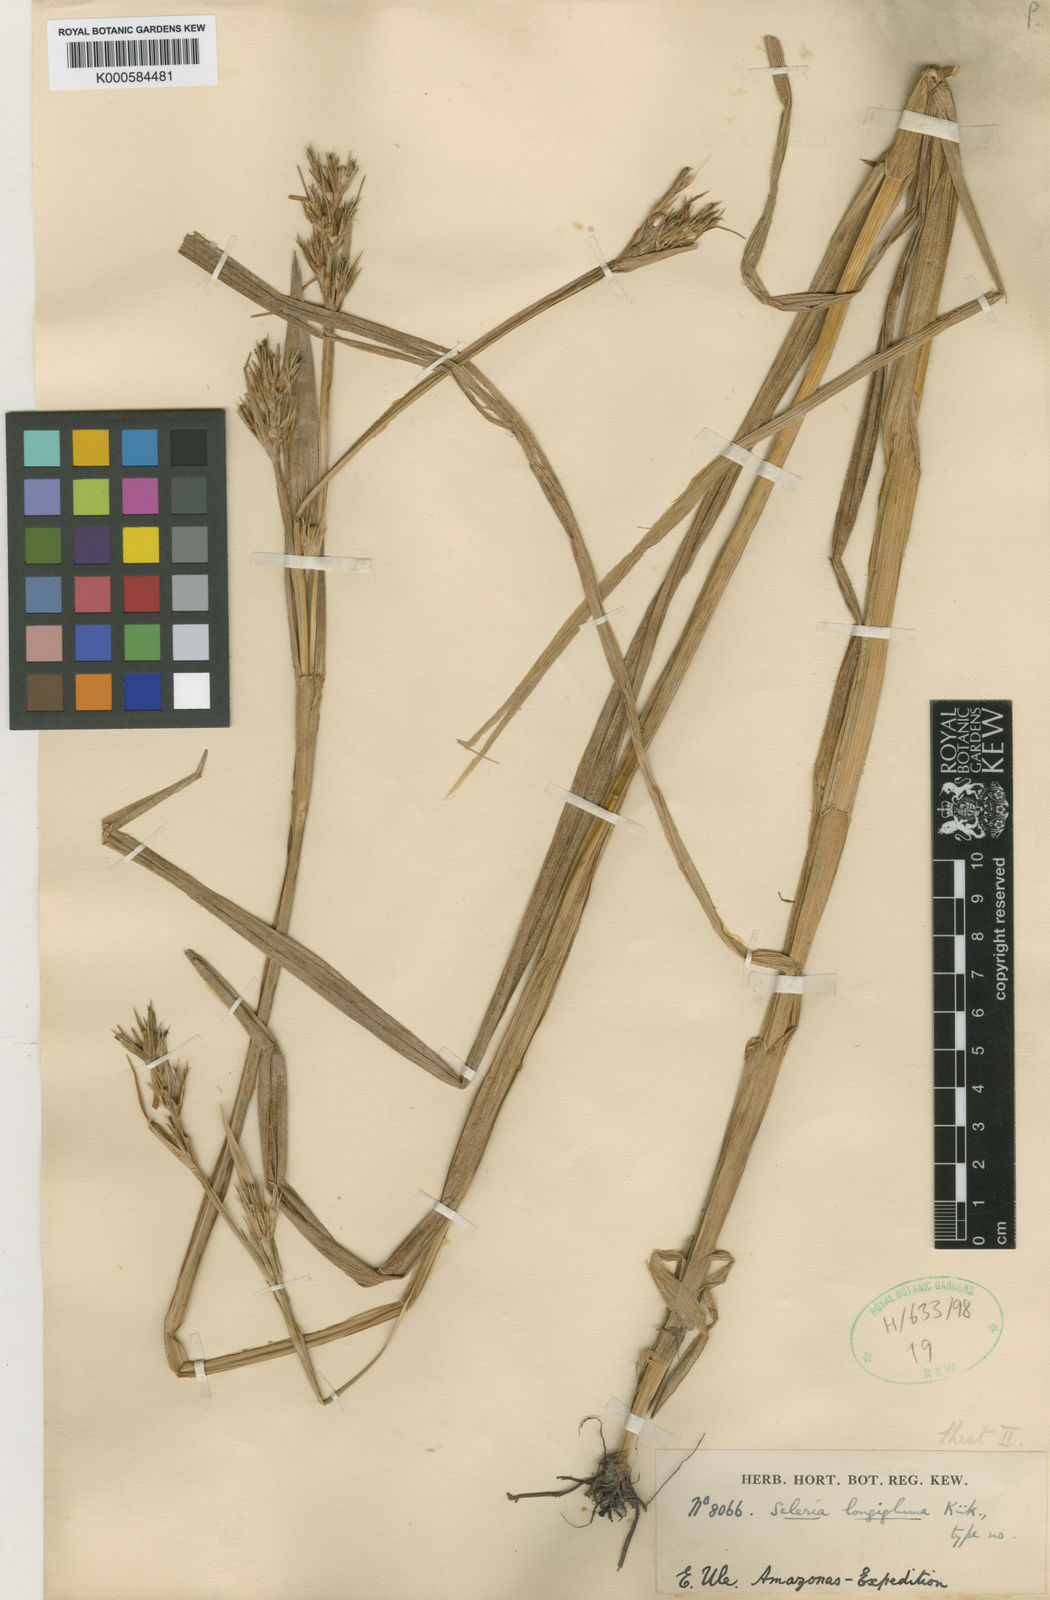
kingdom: Plantae
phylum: Tracheophyta
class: Liliopsida
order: Poales
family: Cyperaceae
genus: Scleria
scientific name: Scleria
